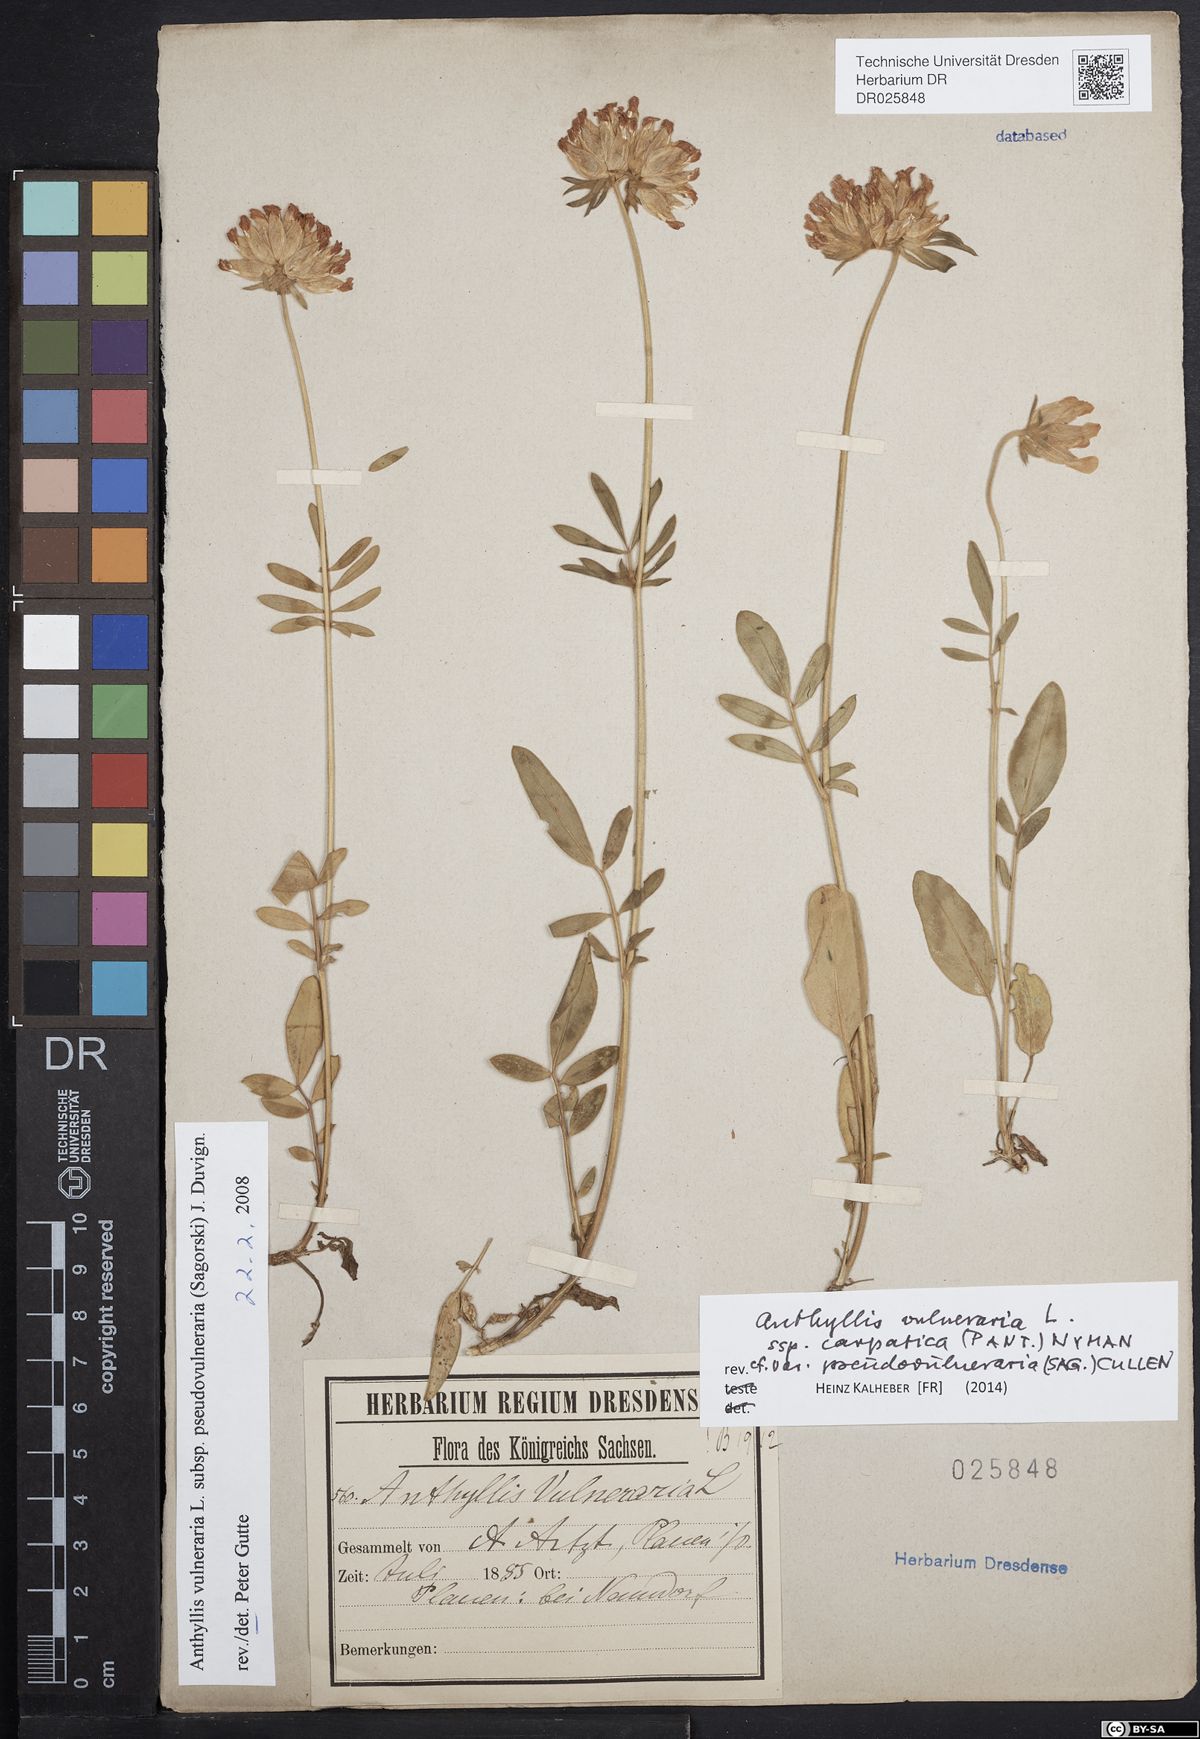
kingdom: Plantae
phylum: Tracheophyta
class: Magnoliopsida
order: Fabales
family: Fabaceae
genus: Anthyllis
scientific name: Anthyllis vulneraria
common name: Kidney vetch
